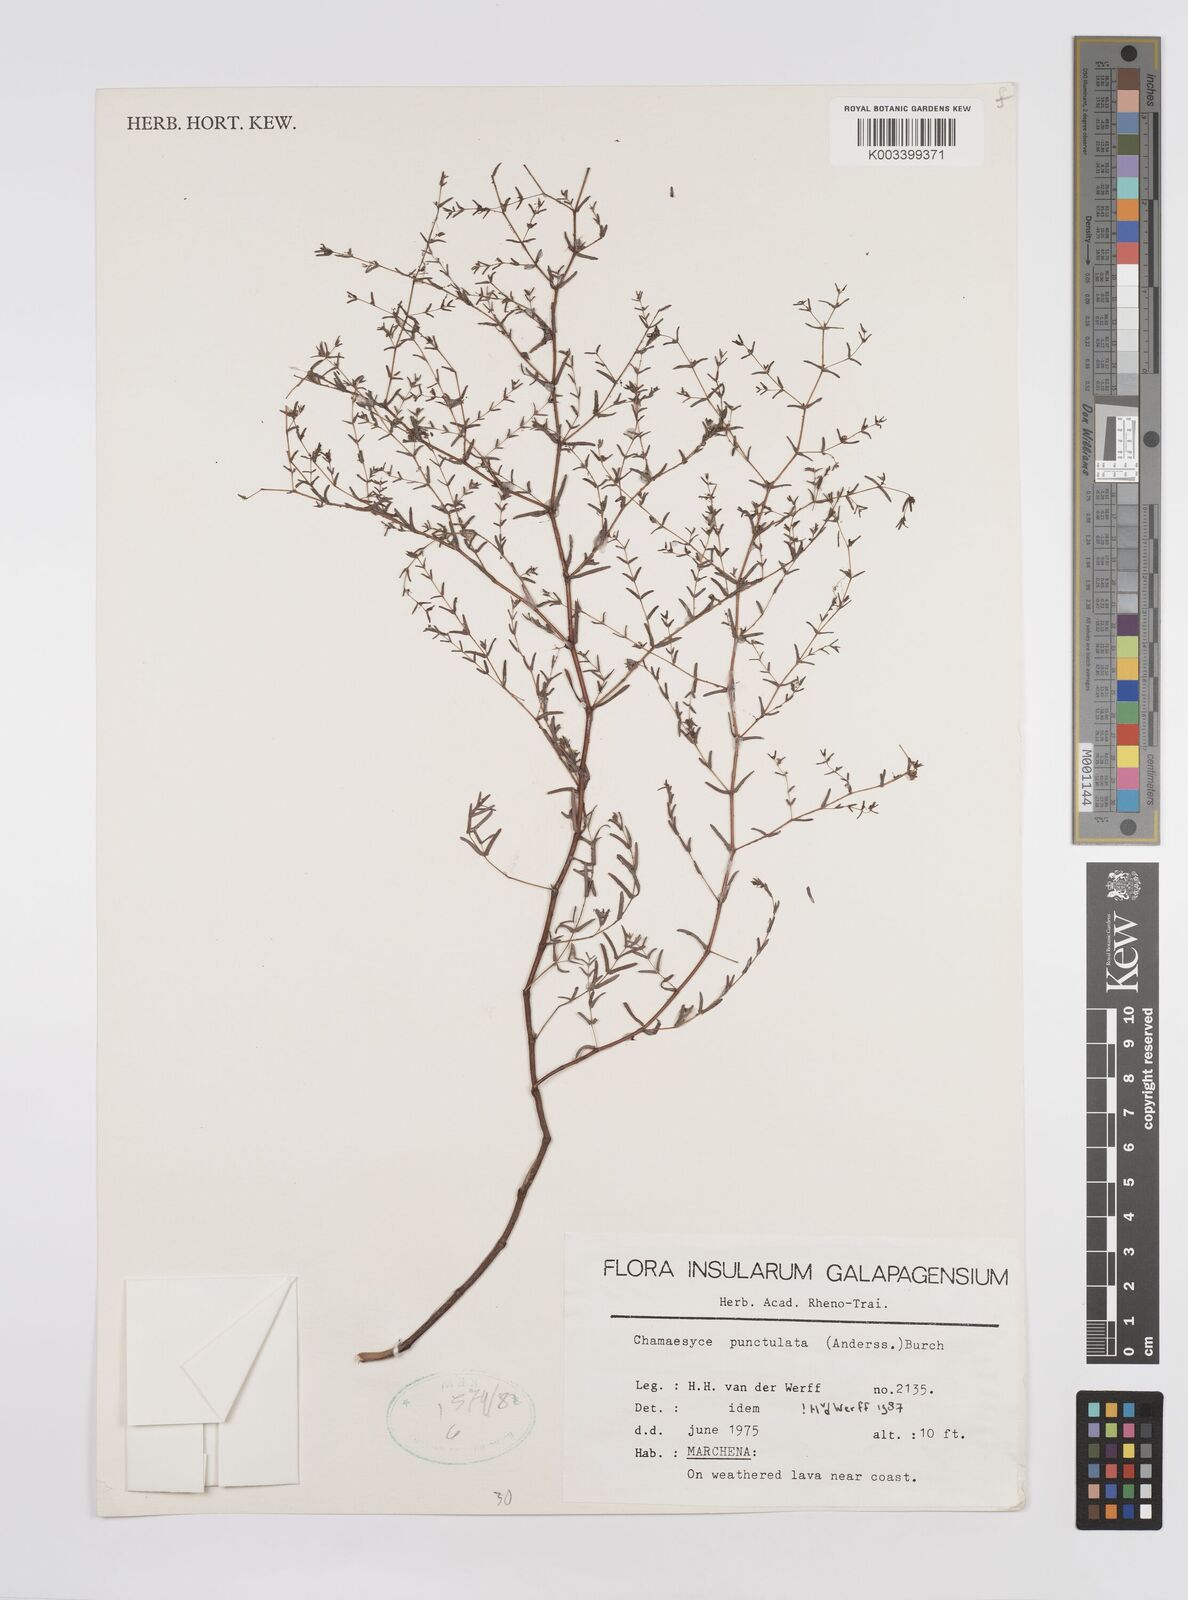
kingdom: Plantae
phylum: Tracheophyta
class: Magnoliopsida
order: Malpighiales
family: Euphorbiaceae
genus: Euphorbia
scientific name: Euphorbia punctulata
